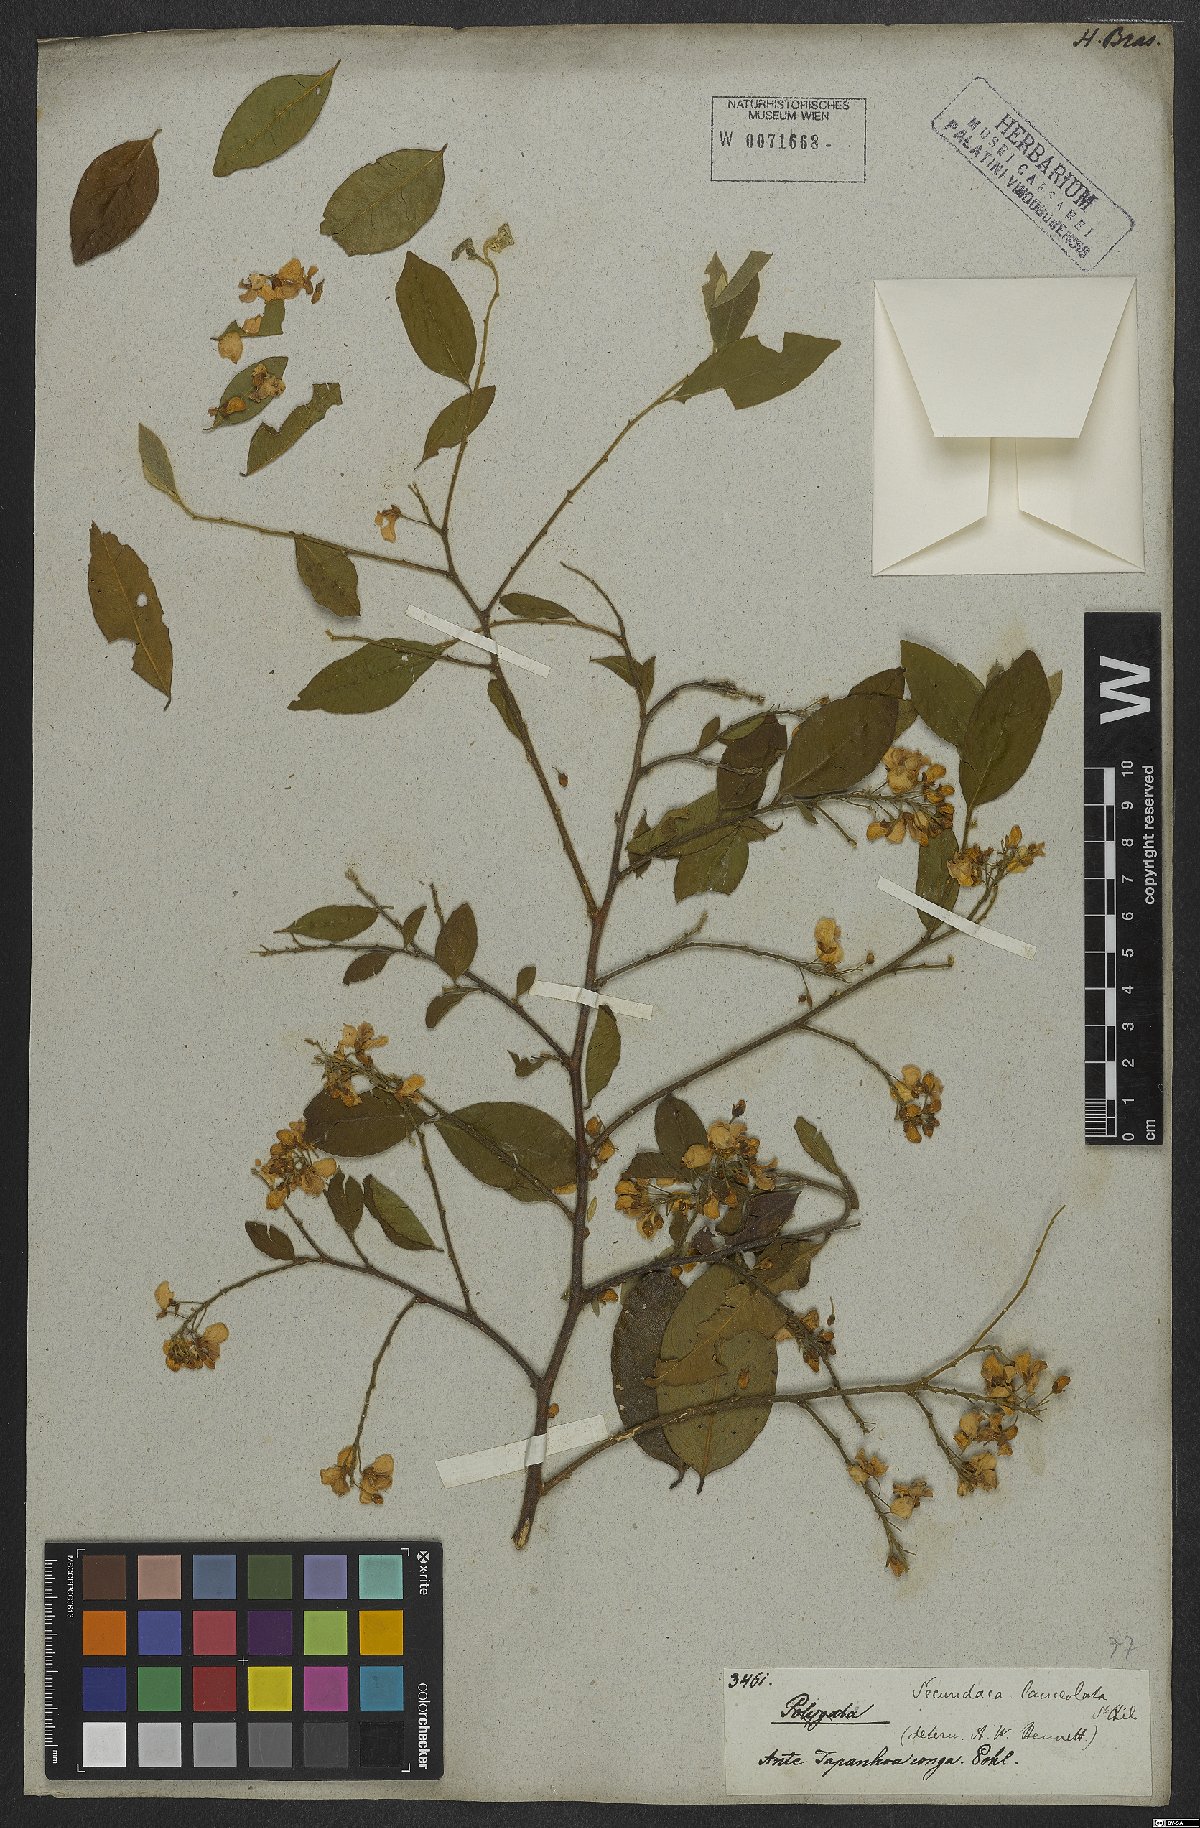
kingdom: Plantae
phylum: Tracheophyta
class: Magnoliopsida
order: Fabales
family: Polygalaceae
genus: Securidaca
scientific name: Securidaca lanceolata
